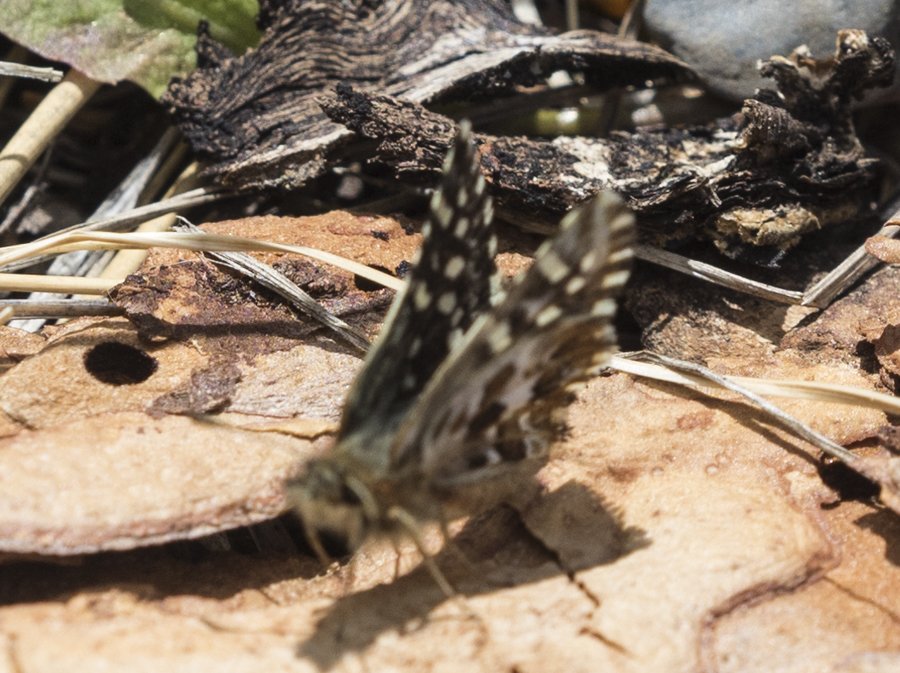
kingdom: Animalia
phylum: Arthropoda
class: Insecta
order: Lepidoptera
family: Hesperiidae
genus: Pyrgus
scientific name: Pyrgus ruralis
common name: Two-banded Checkered-Skipper
